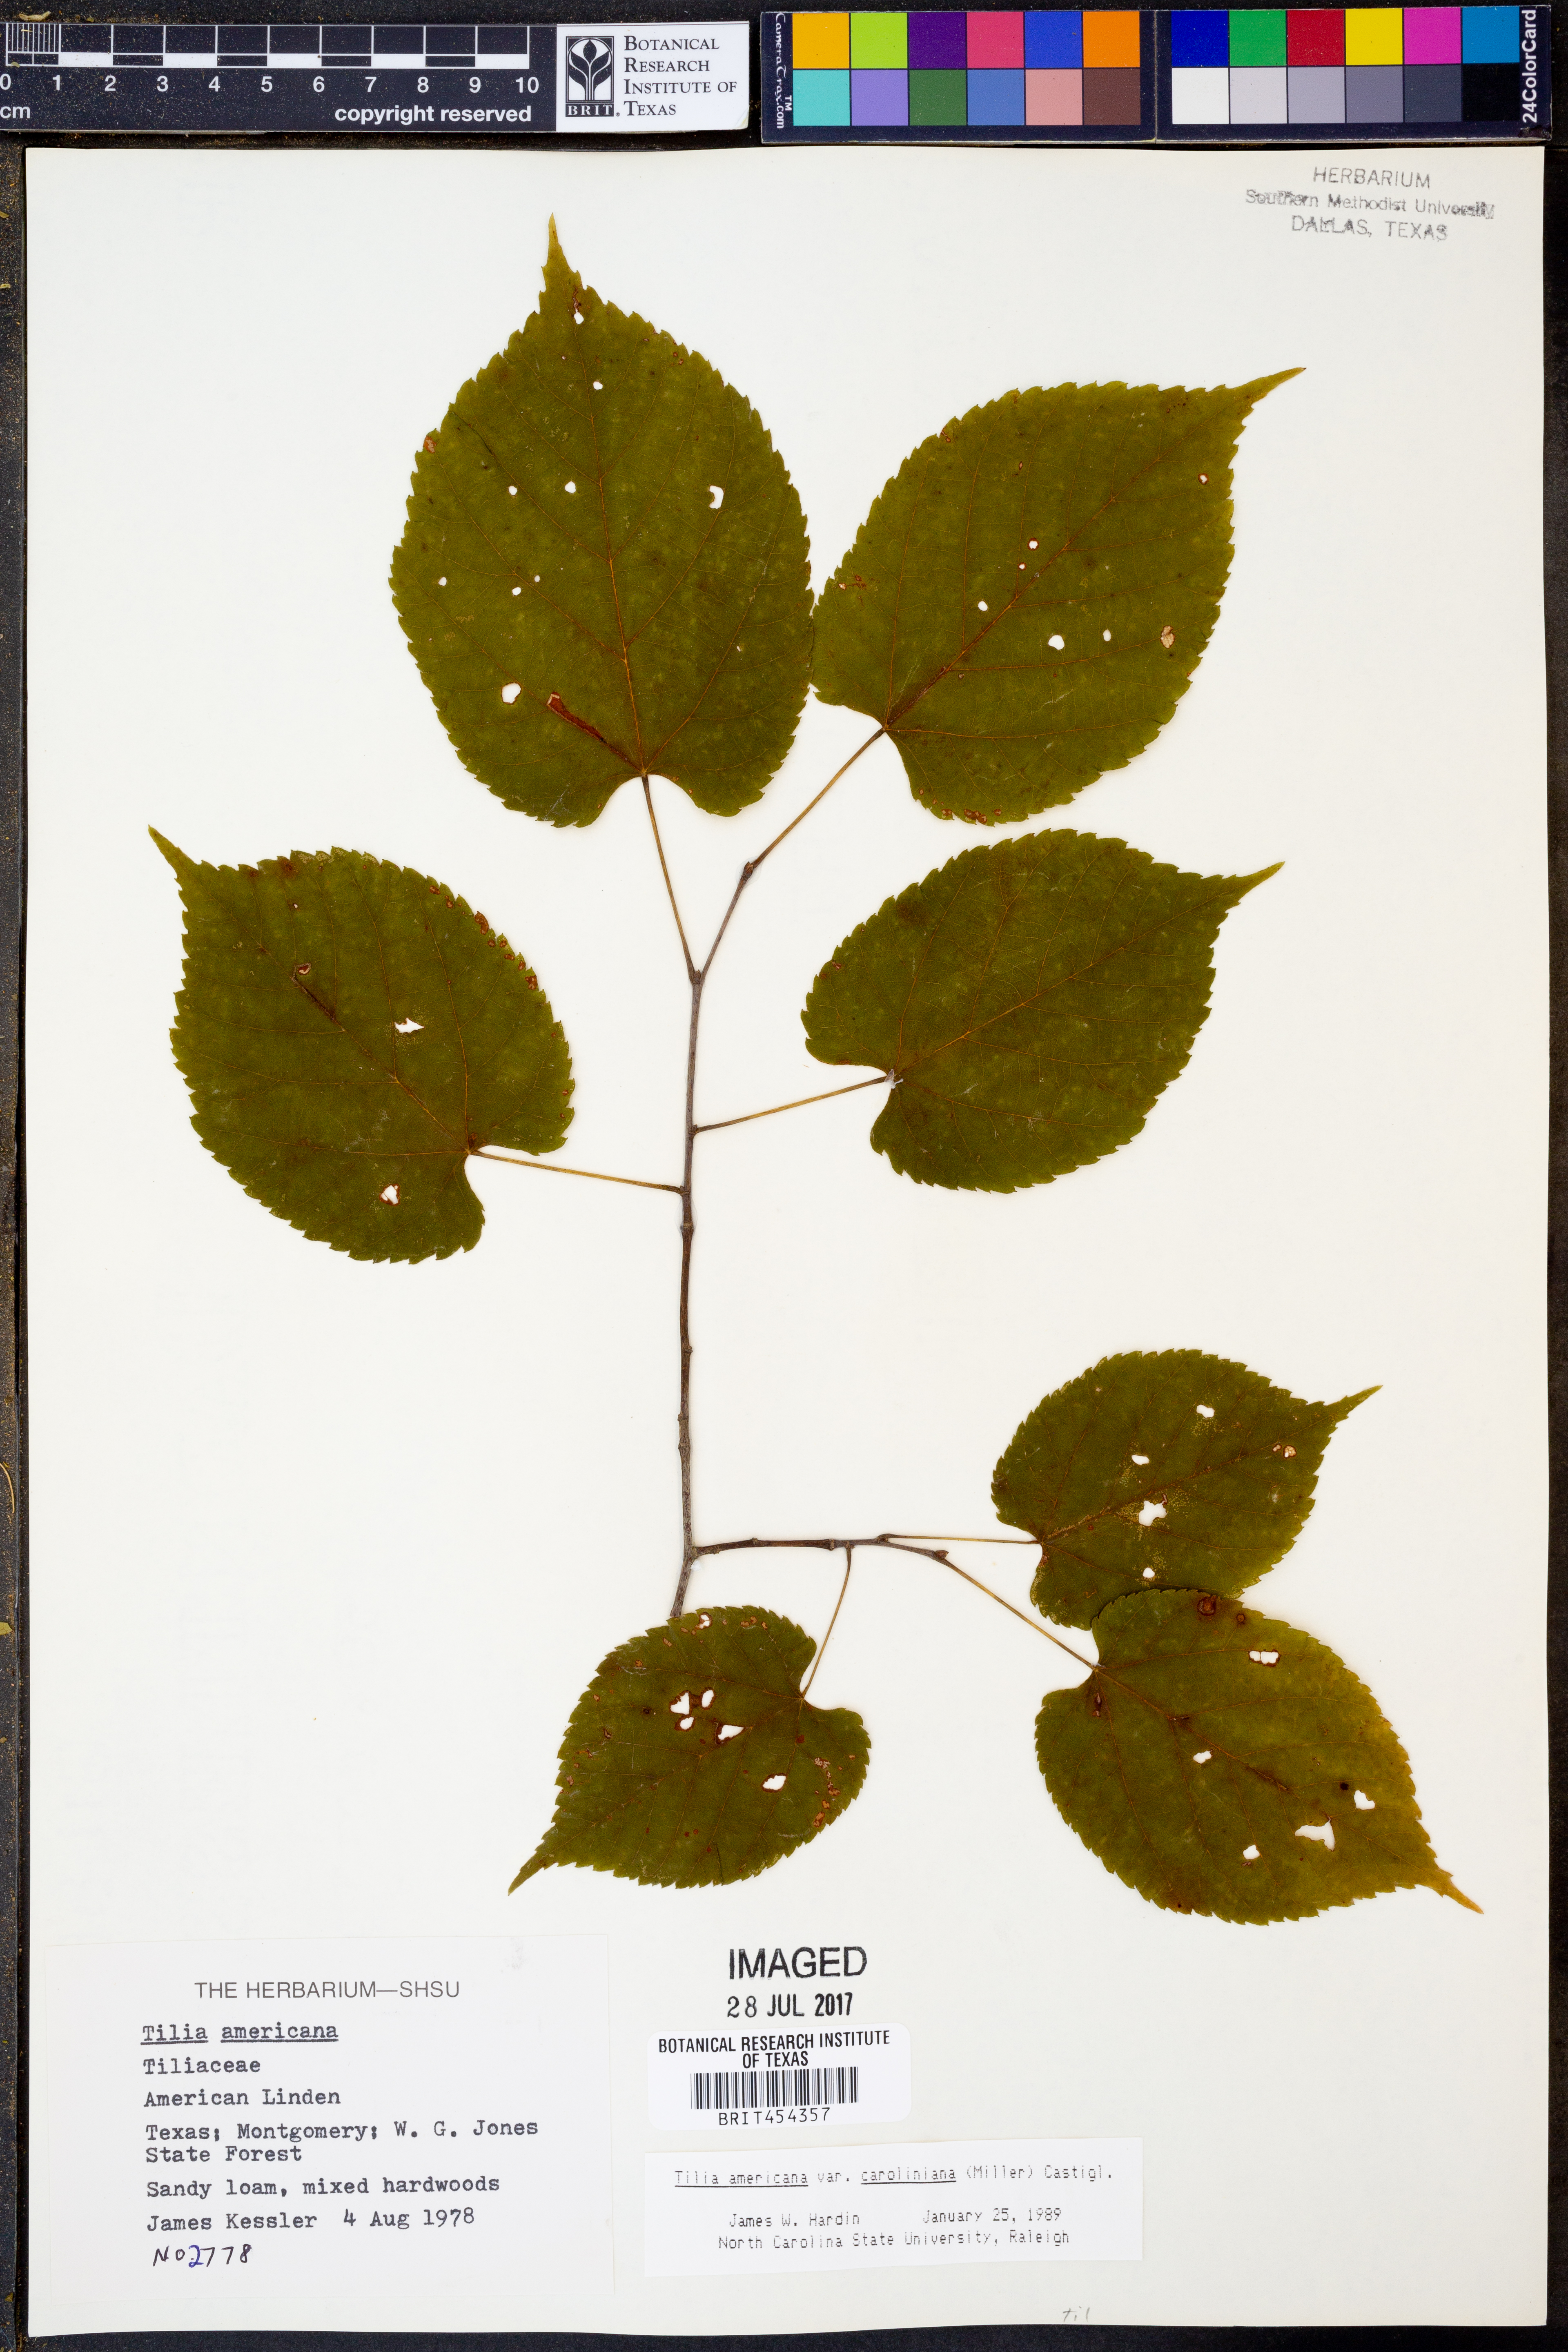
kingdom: Plantae
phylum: Tracheophyta
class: Magnoliopsida
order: Malvales
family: Malvaceae
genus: Tilia
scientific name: Tilia americana
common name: Basswood
